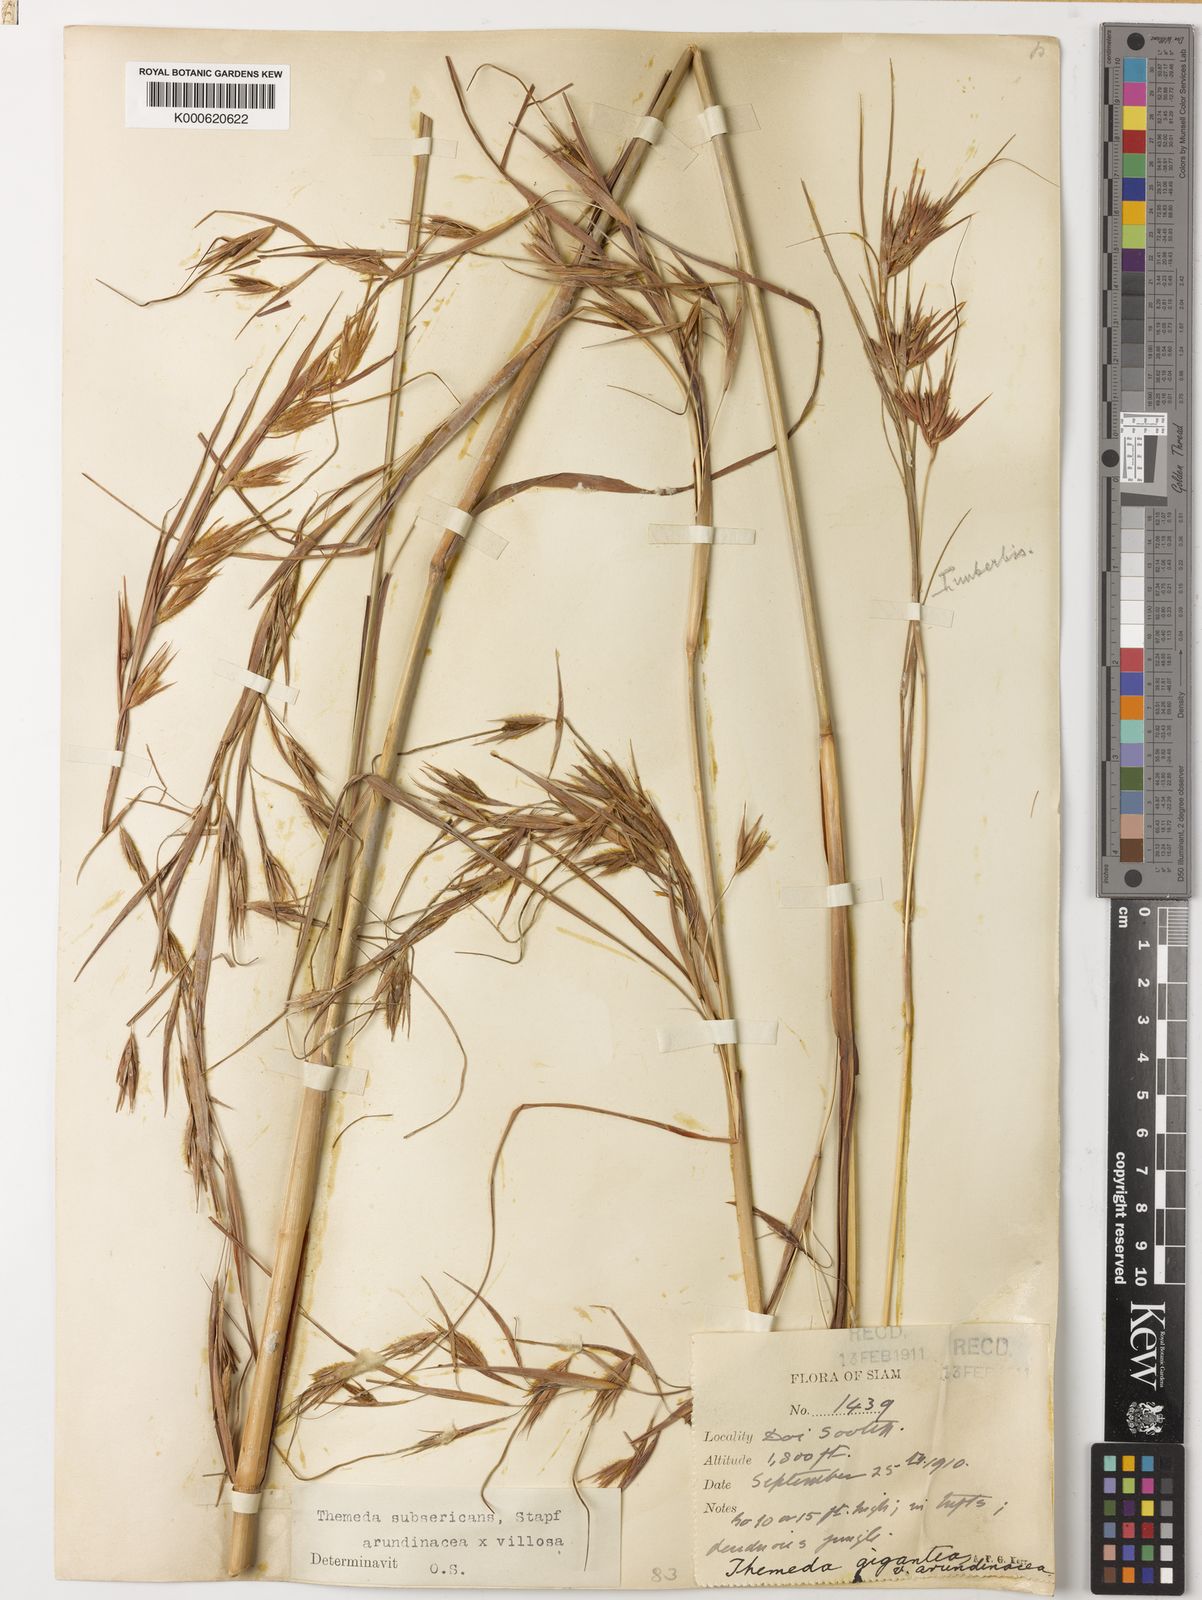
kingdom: Plantae
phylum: Tracheophyta
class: Liliopsida
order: Poales
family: Poaceae
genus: Themeda
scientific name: Themeda arundinacea
